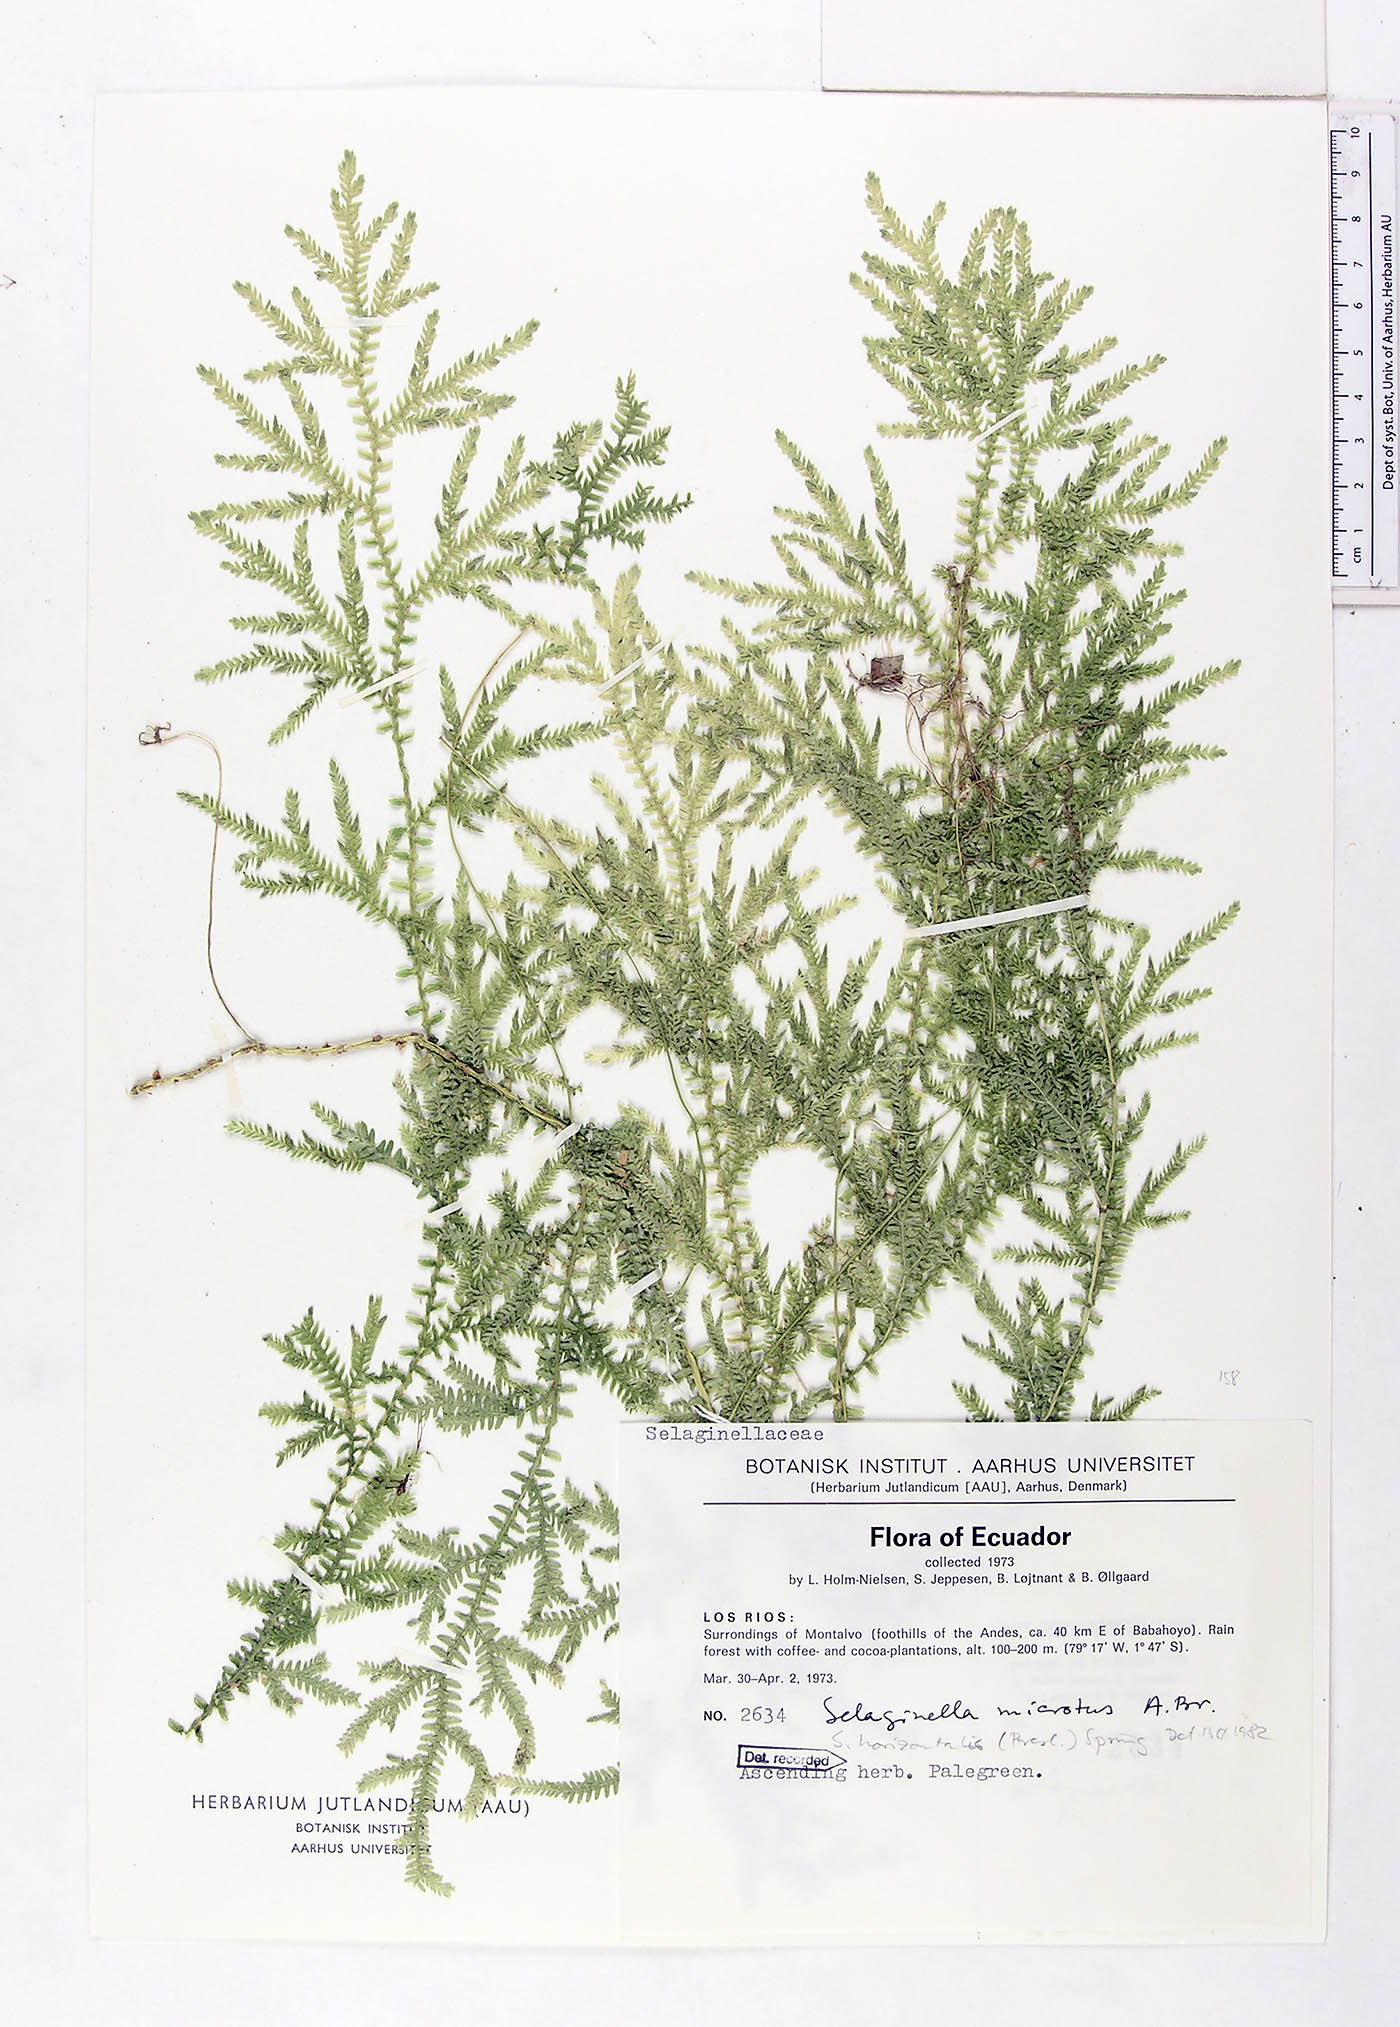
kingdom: Plantae
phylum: Tracheophyta
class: Lycopodiopsida
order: Selaginellales
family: Selaginellaceae
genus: Selaginella
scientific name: Selaginella microtus
